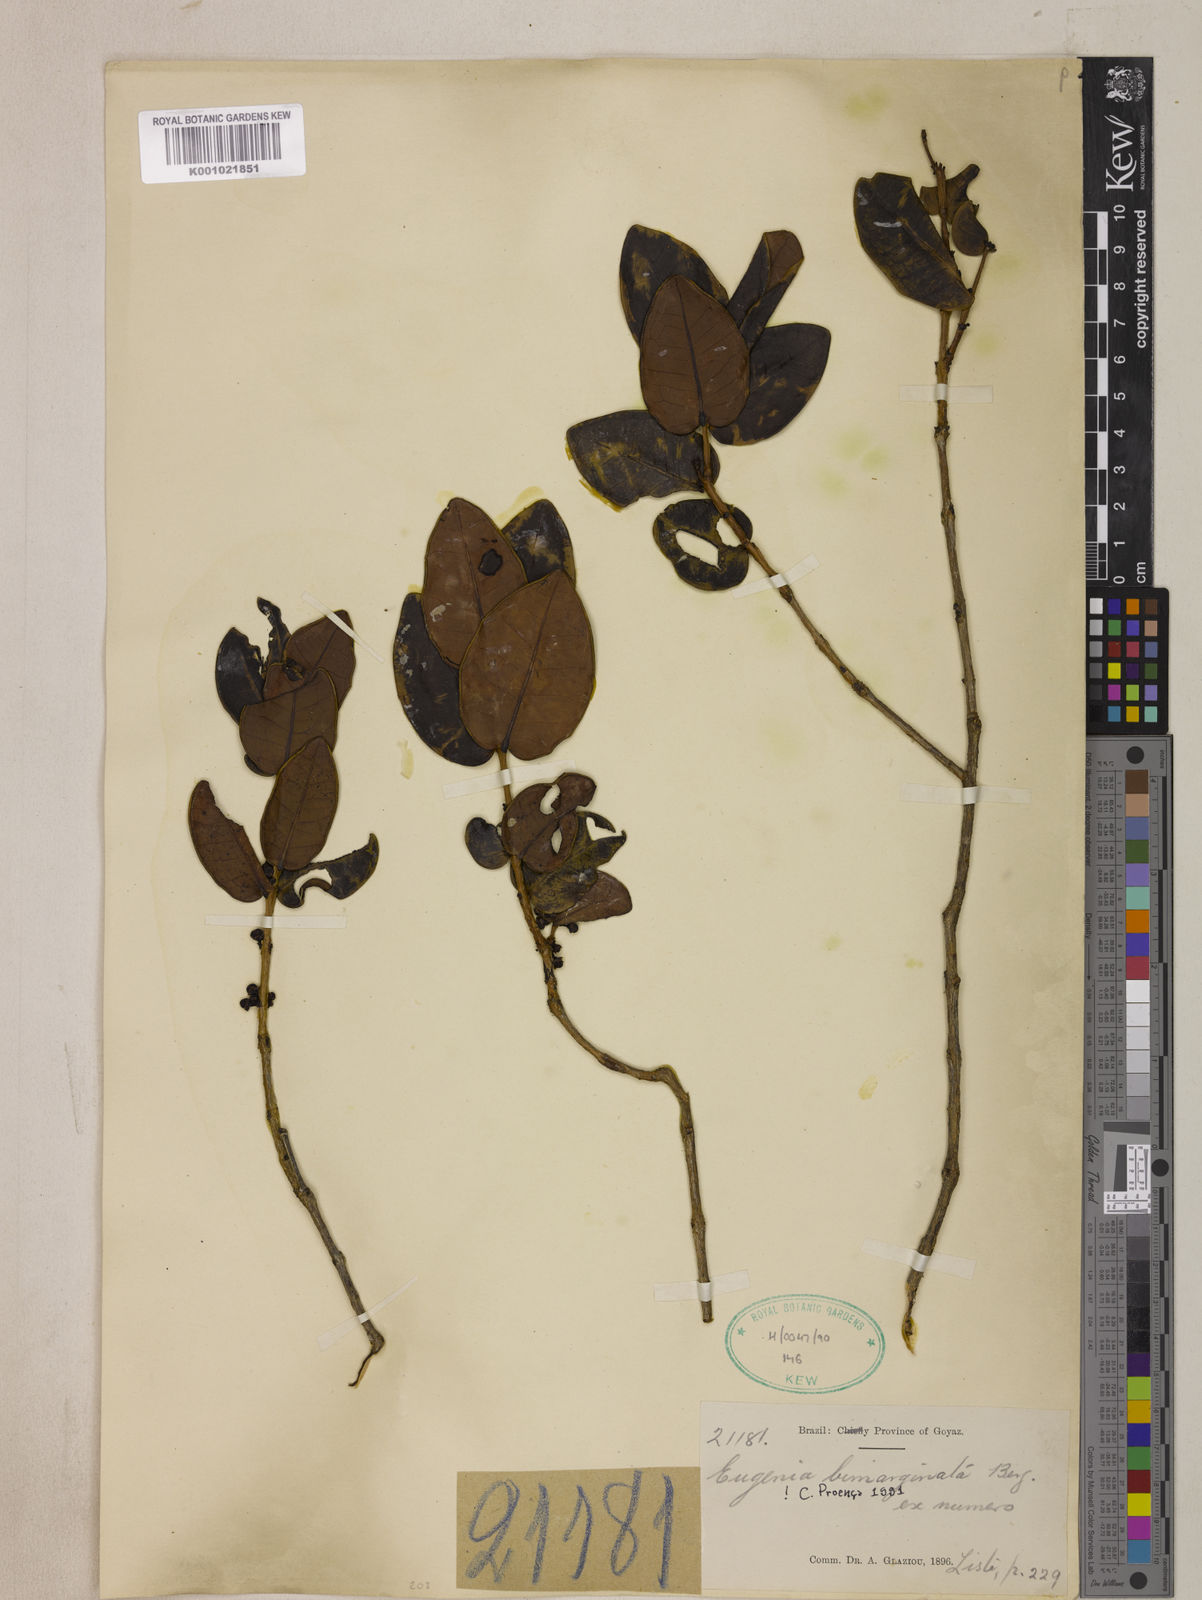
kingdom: Plantae
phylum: Tracheophyta
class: Magnoliopsida
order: Myrtales
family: Myrtaceae
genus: Eugenia
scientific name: Eugenia bimarginata
